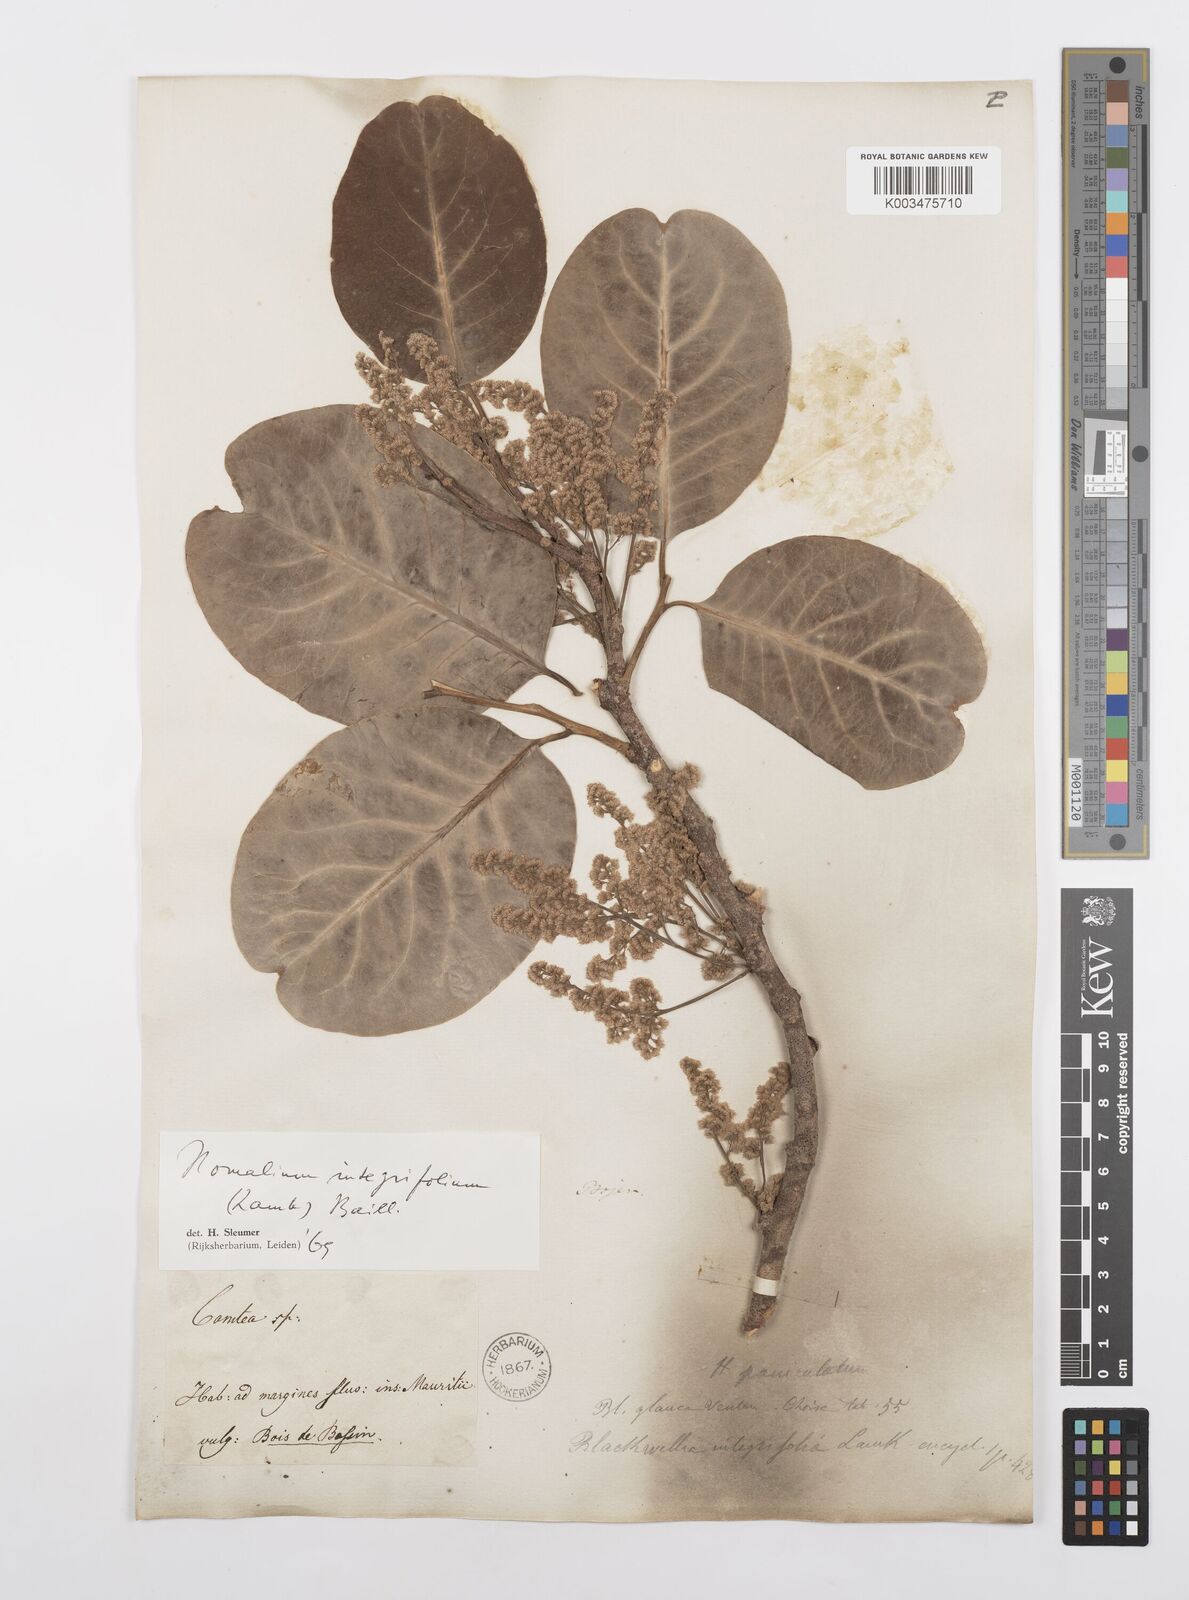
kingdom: Plantae
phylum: Tracheophyta
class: Magnoliopsida
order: Malpighiales
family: Salicaceae
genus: Homalium
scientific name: Homalium integrifolium
